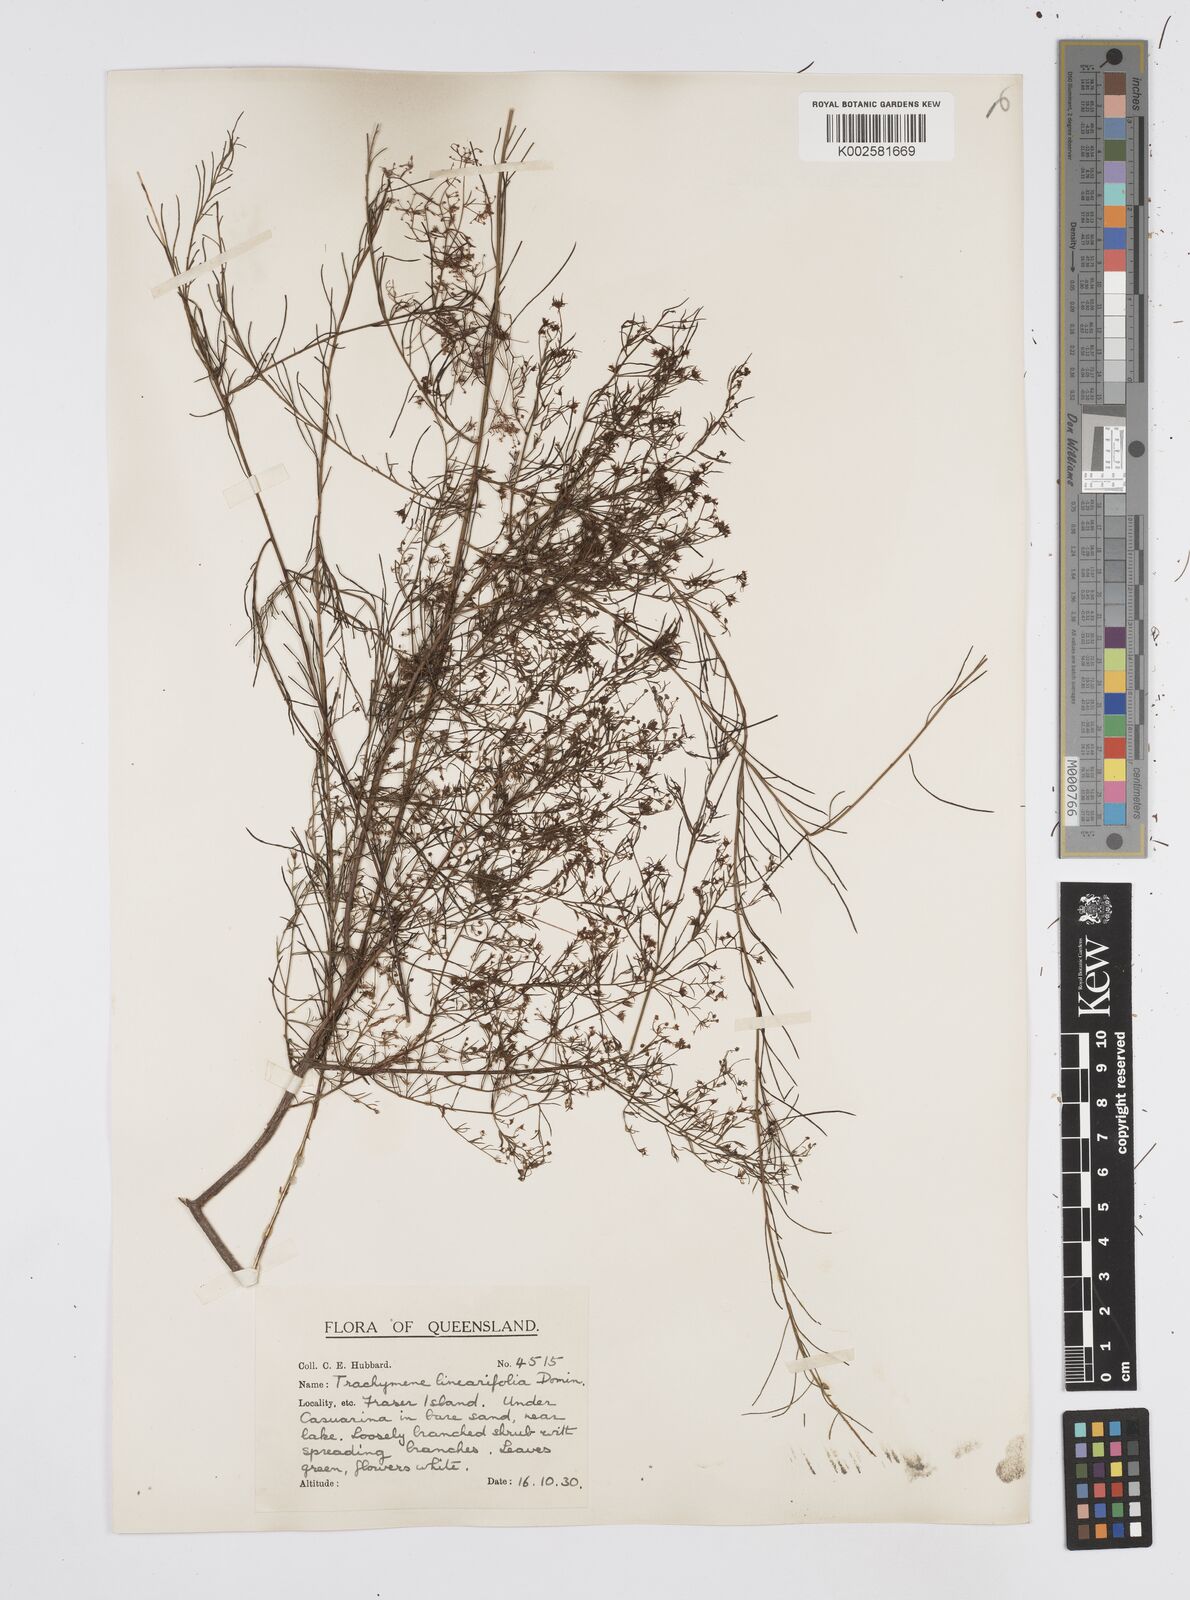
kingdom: Plantae
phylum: Tracheophyta
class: Magnoliopsida
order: Apiales
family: Apiaceae
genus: Platysace
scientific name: Platysace linearifolia
